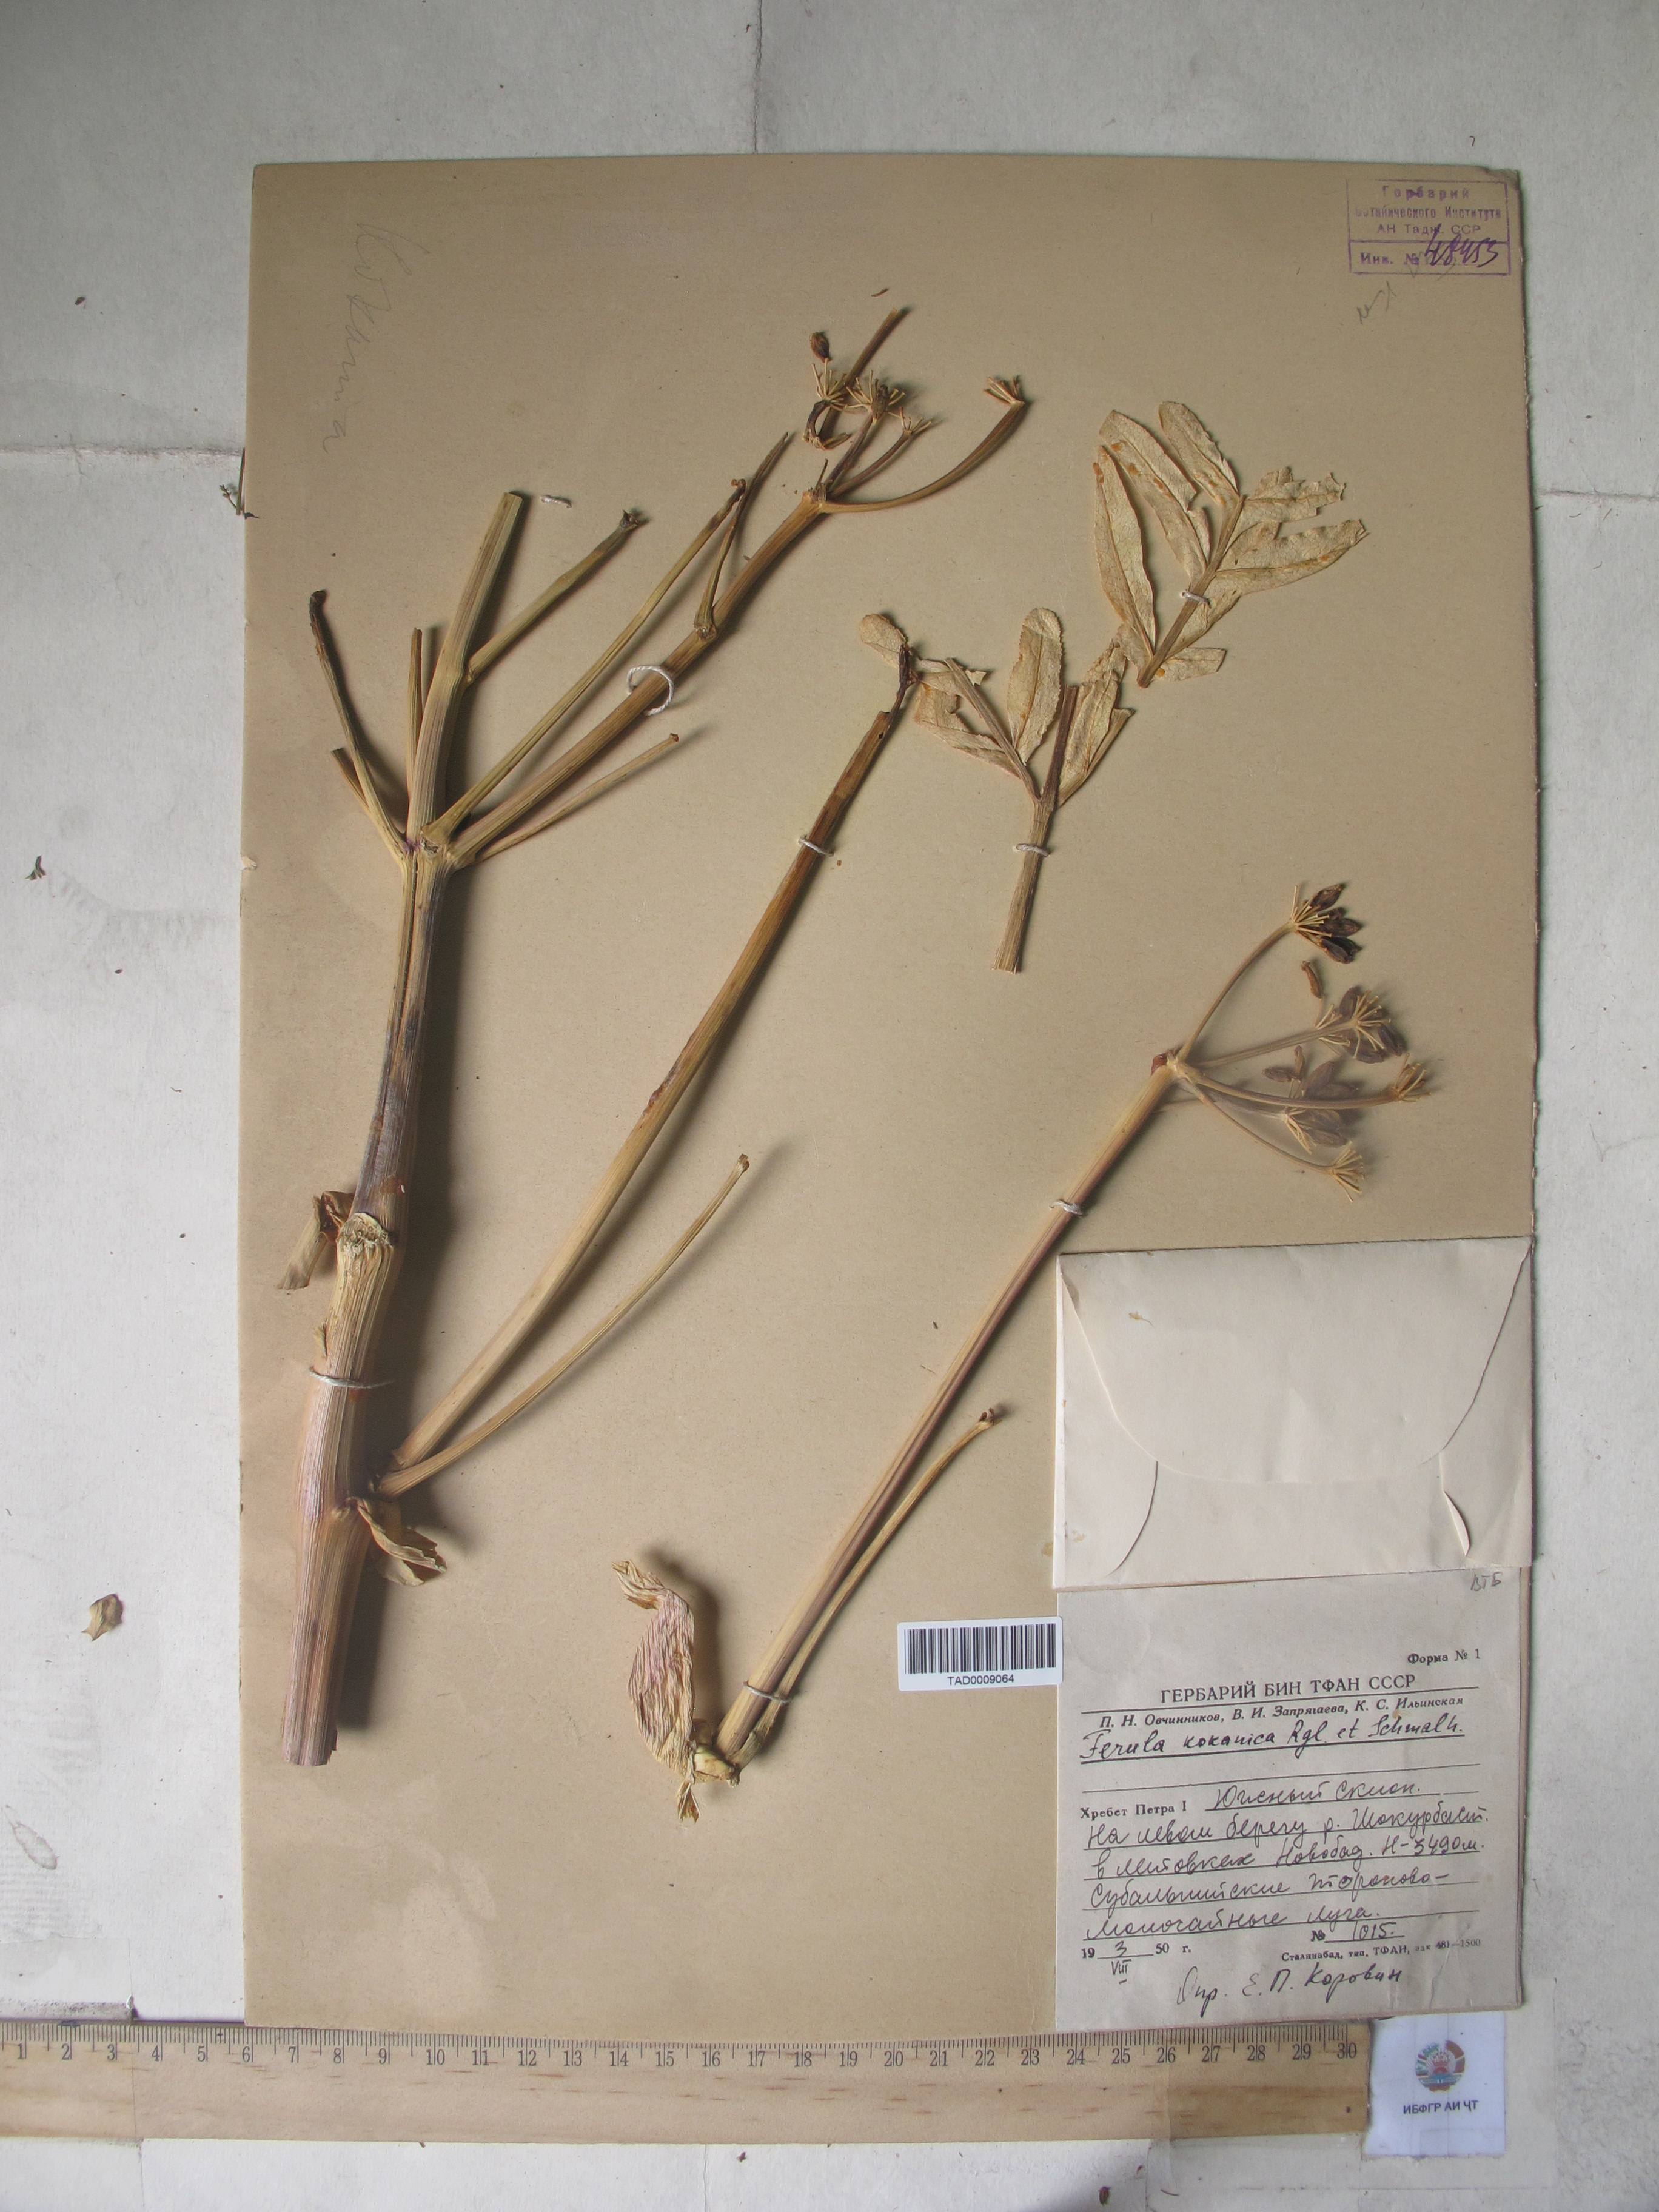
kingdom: Plantae
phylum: Tracheophyta
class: Magnoliopsida
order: Apiales
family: Apiaceae
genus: Ferula
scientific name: Ferula kokanica
